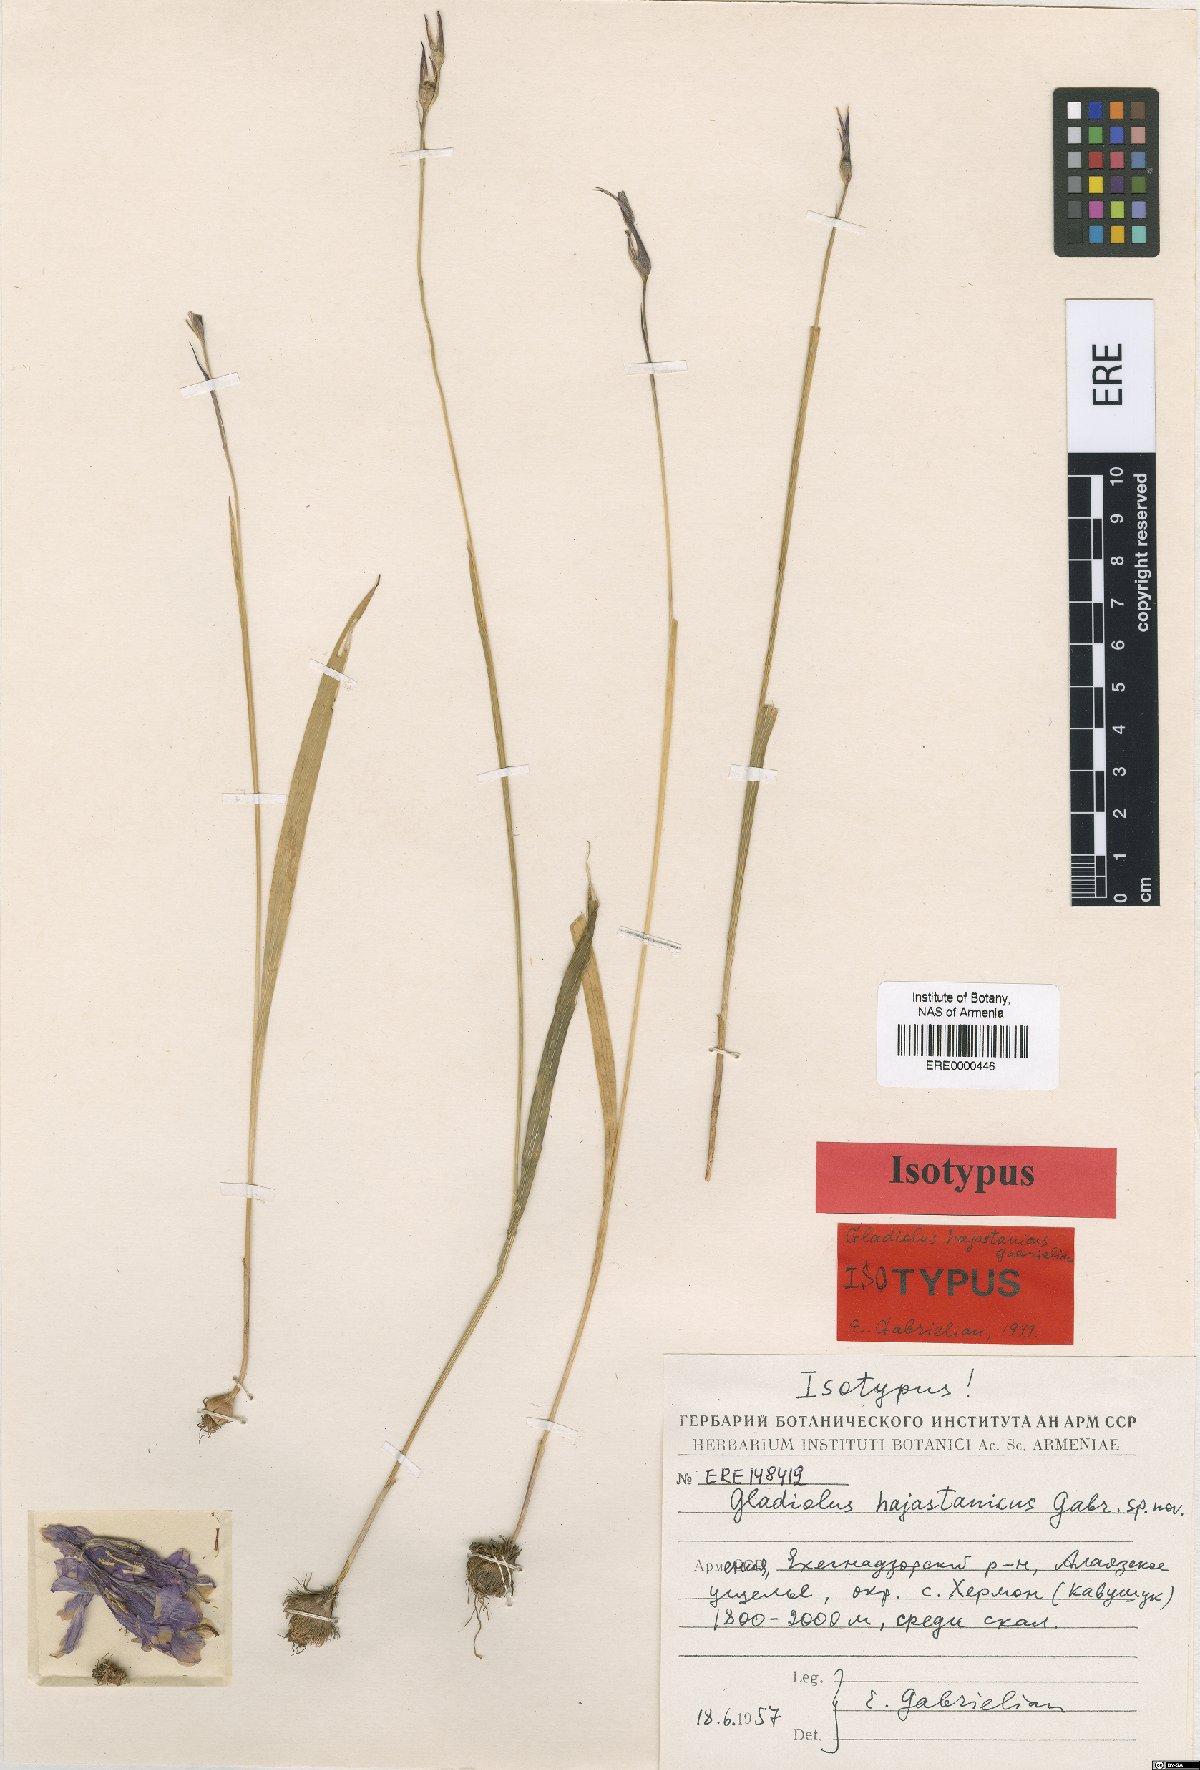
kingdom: Plantae
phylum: Tracheophyta
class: Liliopsida
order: Asparagales
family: Iridaceae
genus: Gladiolus
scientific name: Gladiolus hajastanicus
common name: Armenian sword-lily
